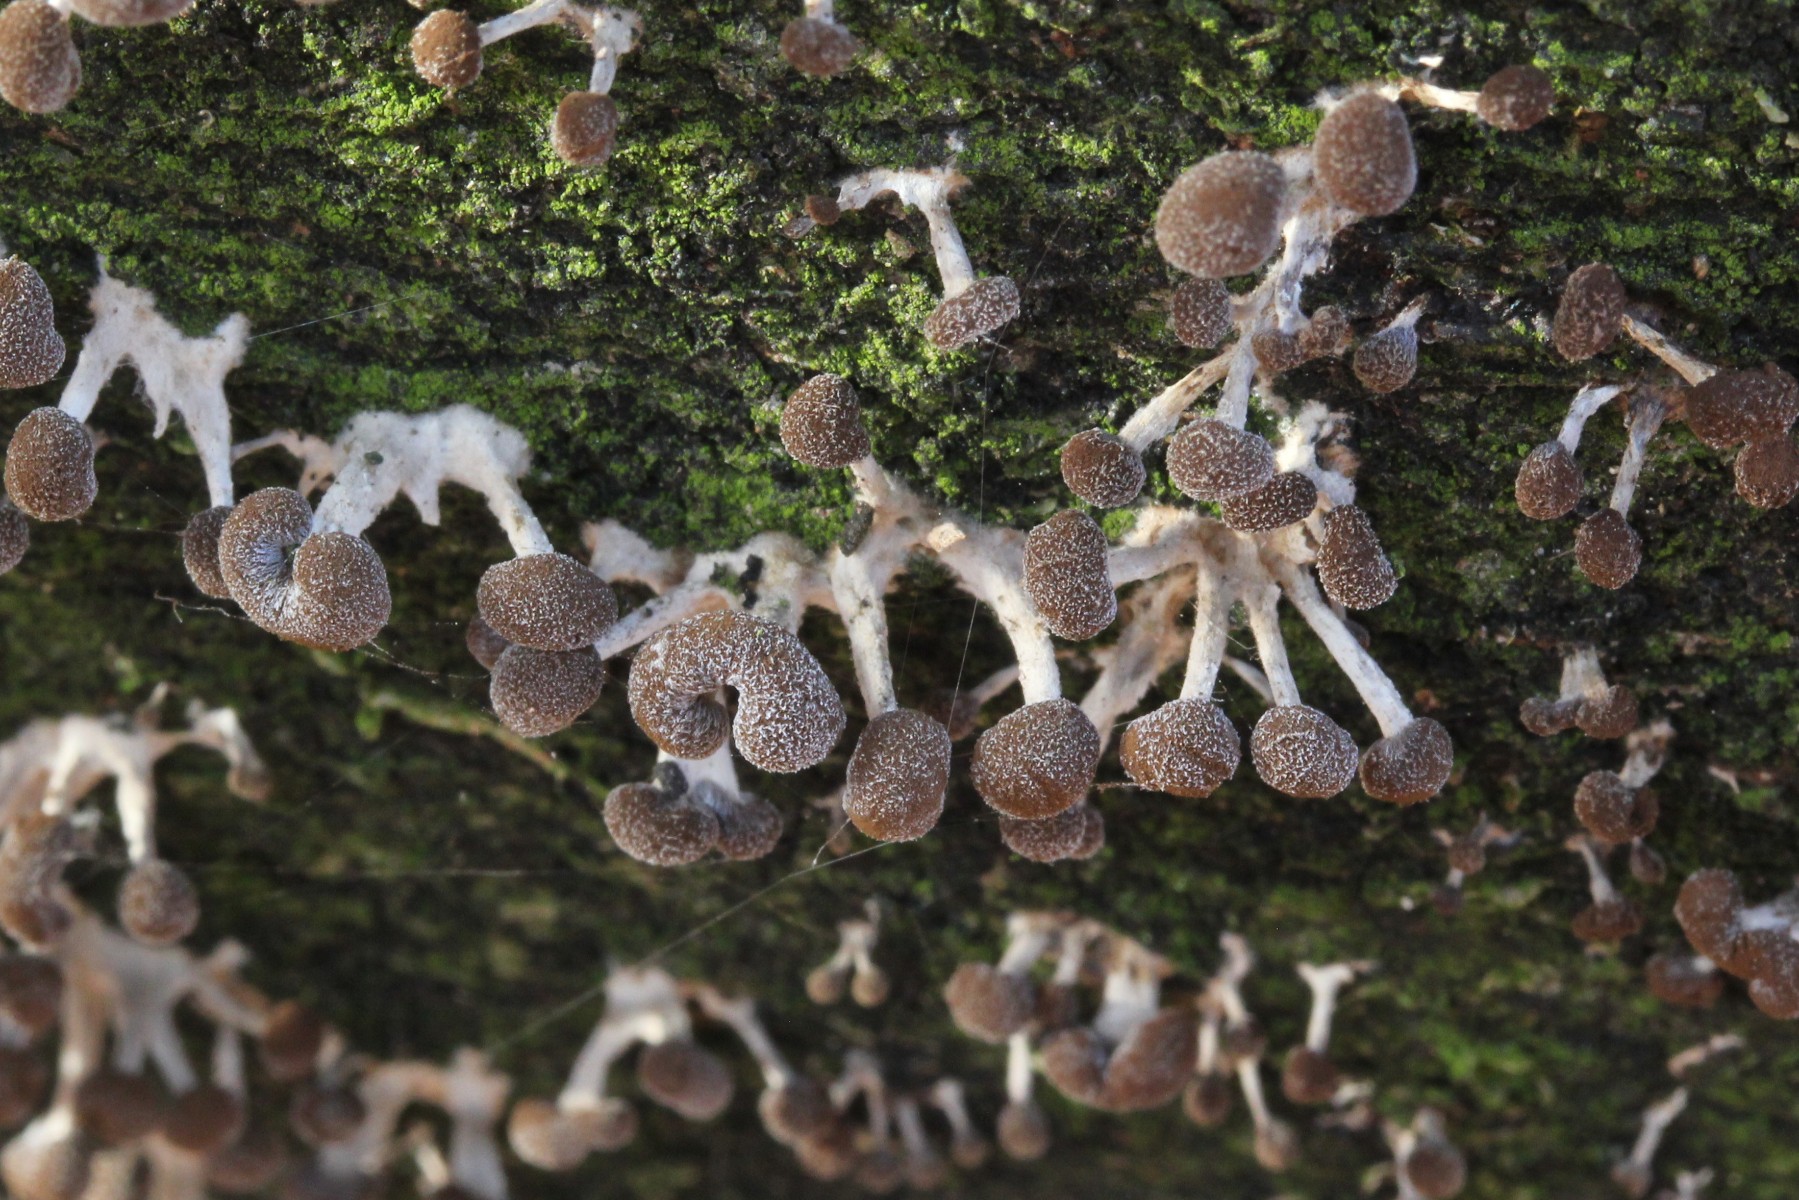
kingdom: Fungi
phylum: Basidiomycota
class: Atractiellomycetes
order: Atractiellales
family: Phleogenaceae
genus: Phleogena
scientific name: Phleogena faginea
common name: pudderkølle
